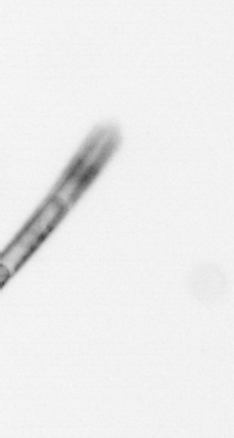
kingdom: Chromista
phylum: Ochrophyta
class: Bacillariophyceae
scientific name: Bacillariophyceae
